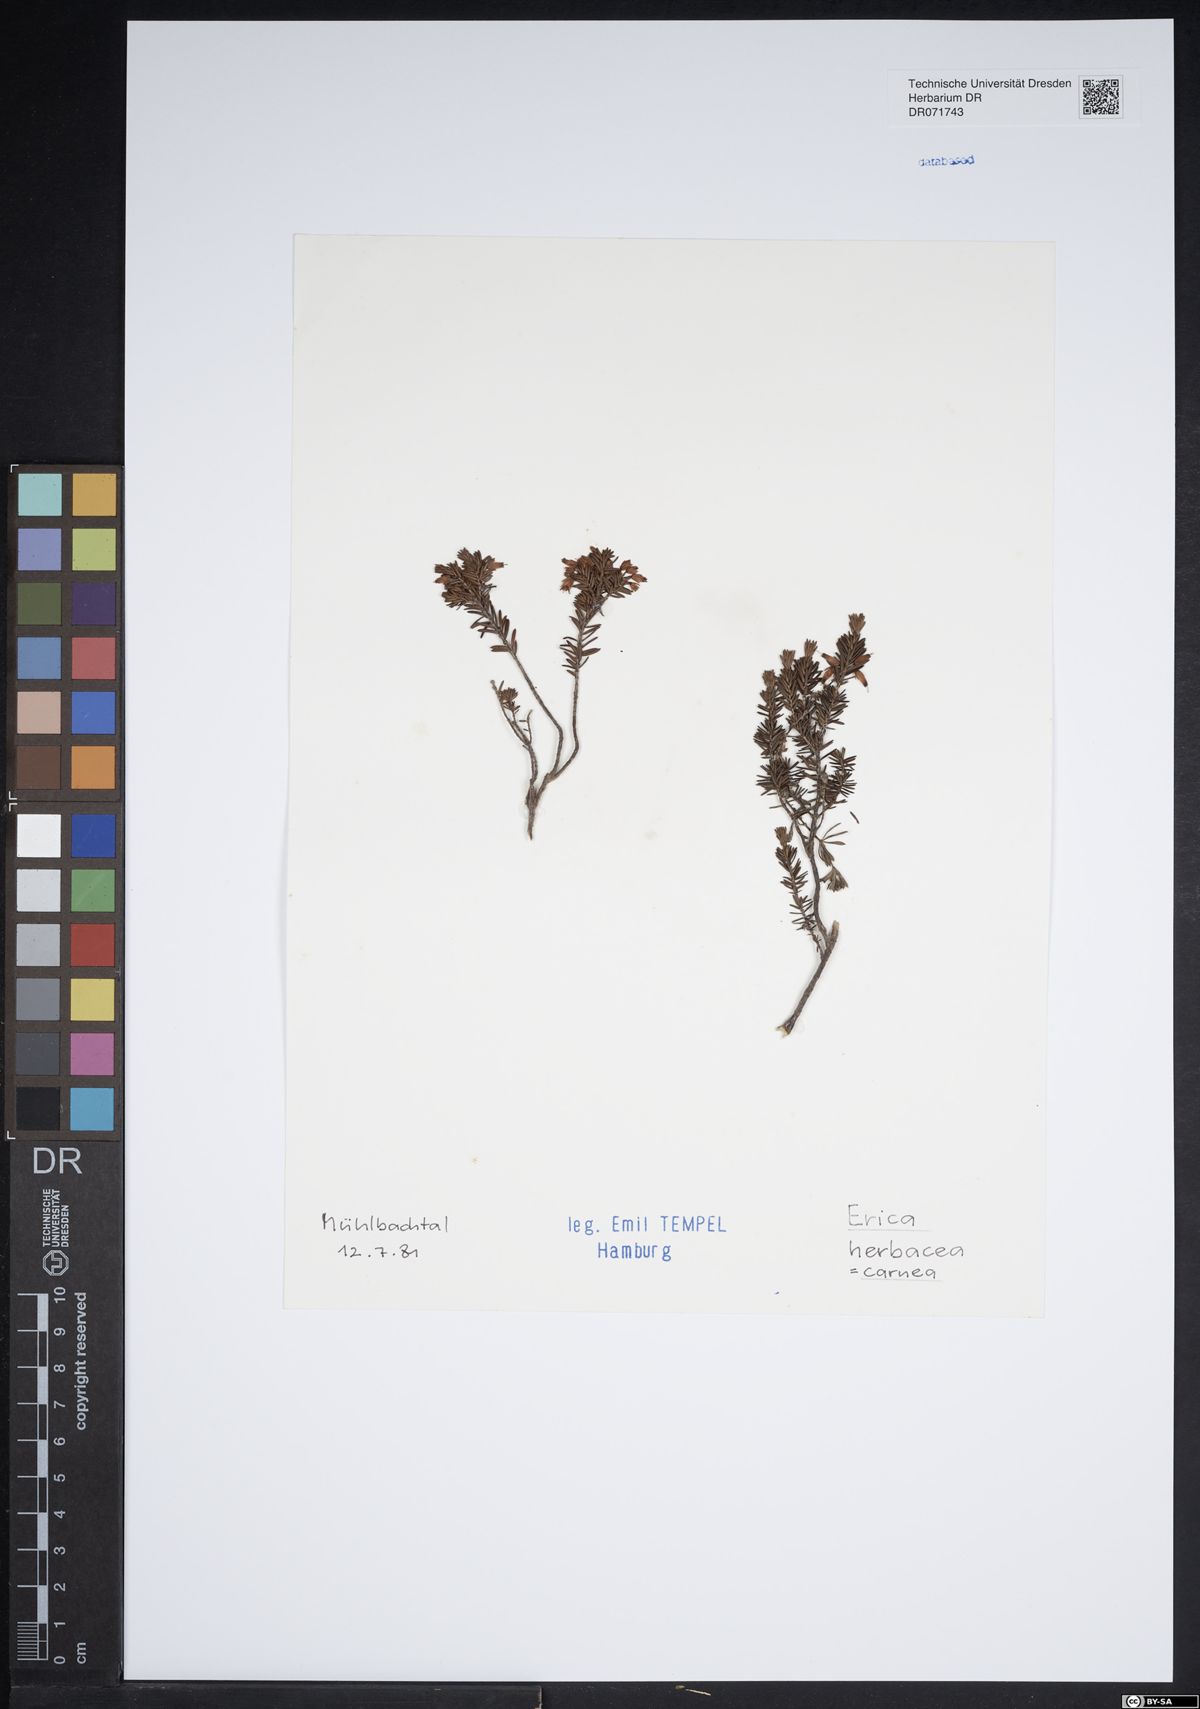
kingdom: Plantae
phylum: Tracheophyta
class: Magnoliopsida
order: Ericales
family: Ericaceae
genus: Erica
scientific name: Erica carnea
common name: Winter heath
